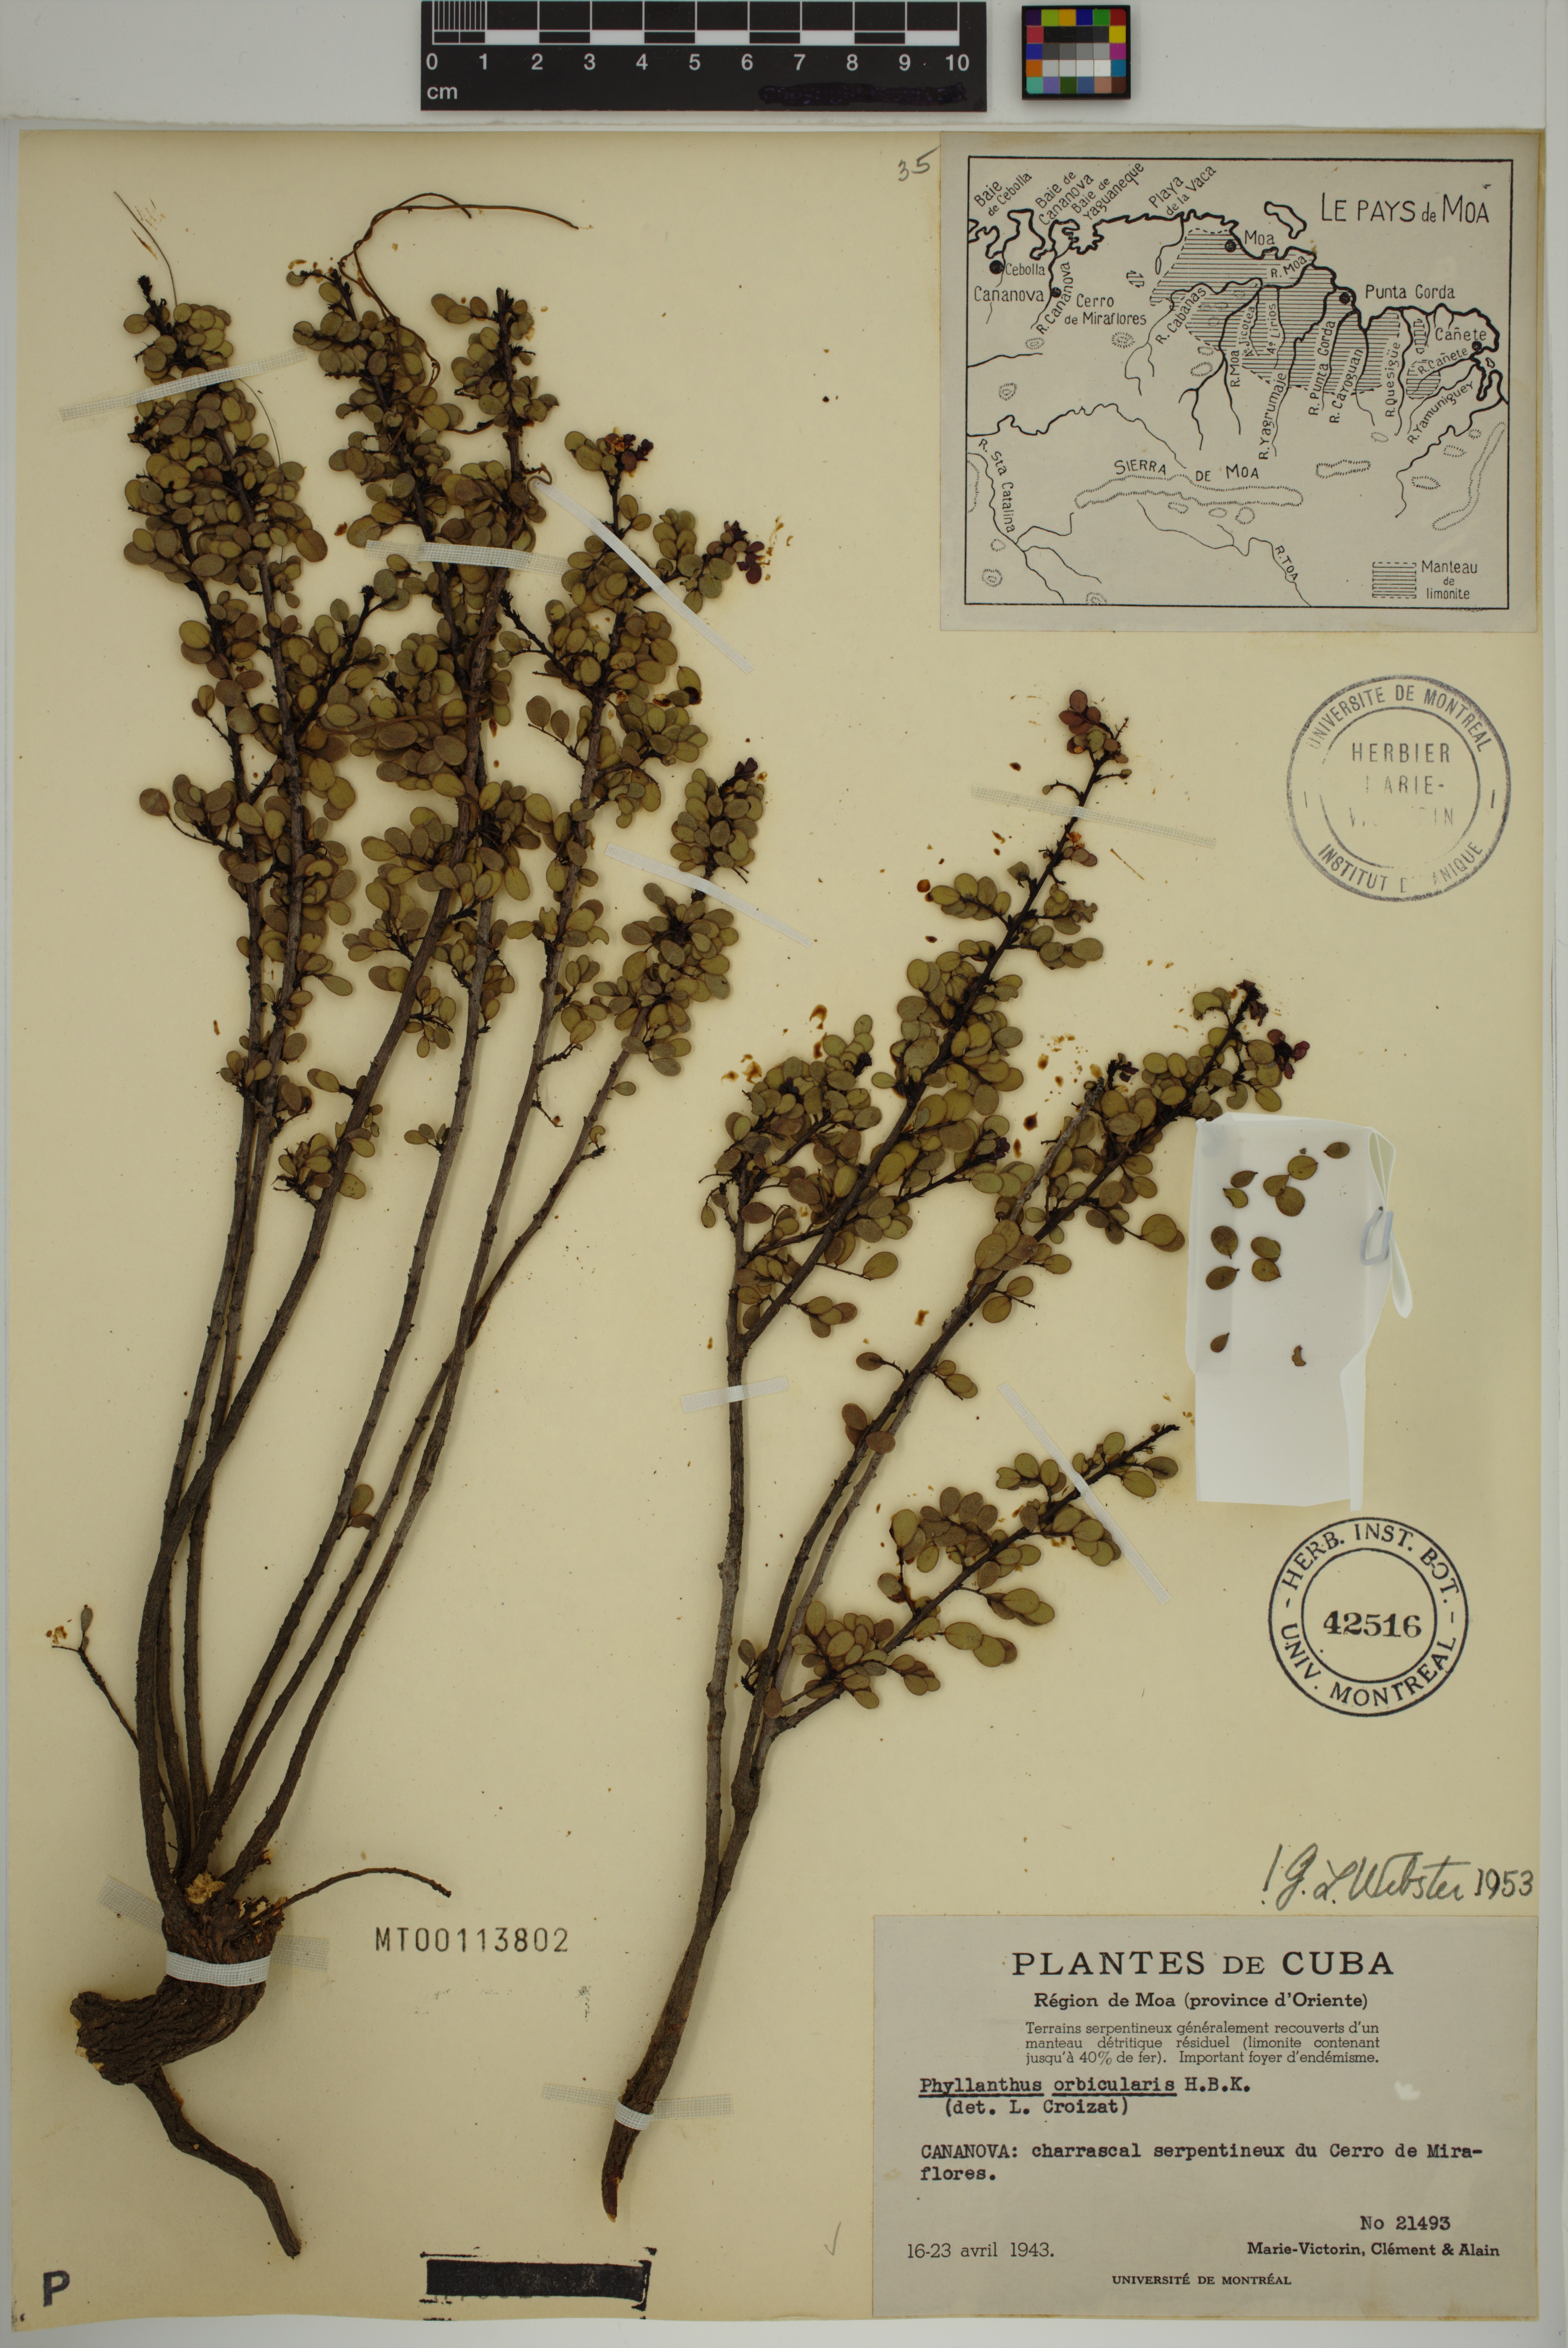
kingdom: Plantae
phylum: Tracheophyta
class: Magnoliopsida
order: Malpighiales
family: Phyllanthaceae
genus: Phyllanthus
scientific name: Phyllanthus orbicularis
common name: Wedge leaf-flower
